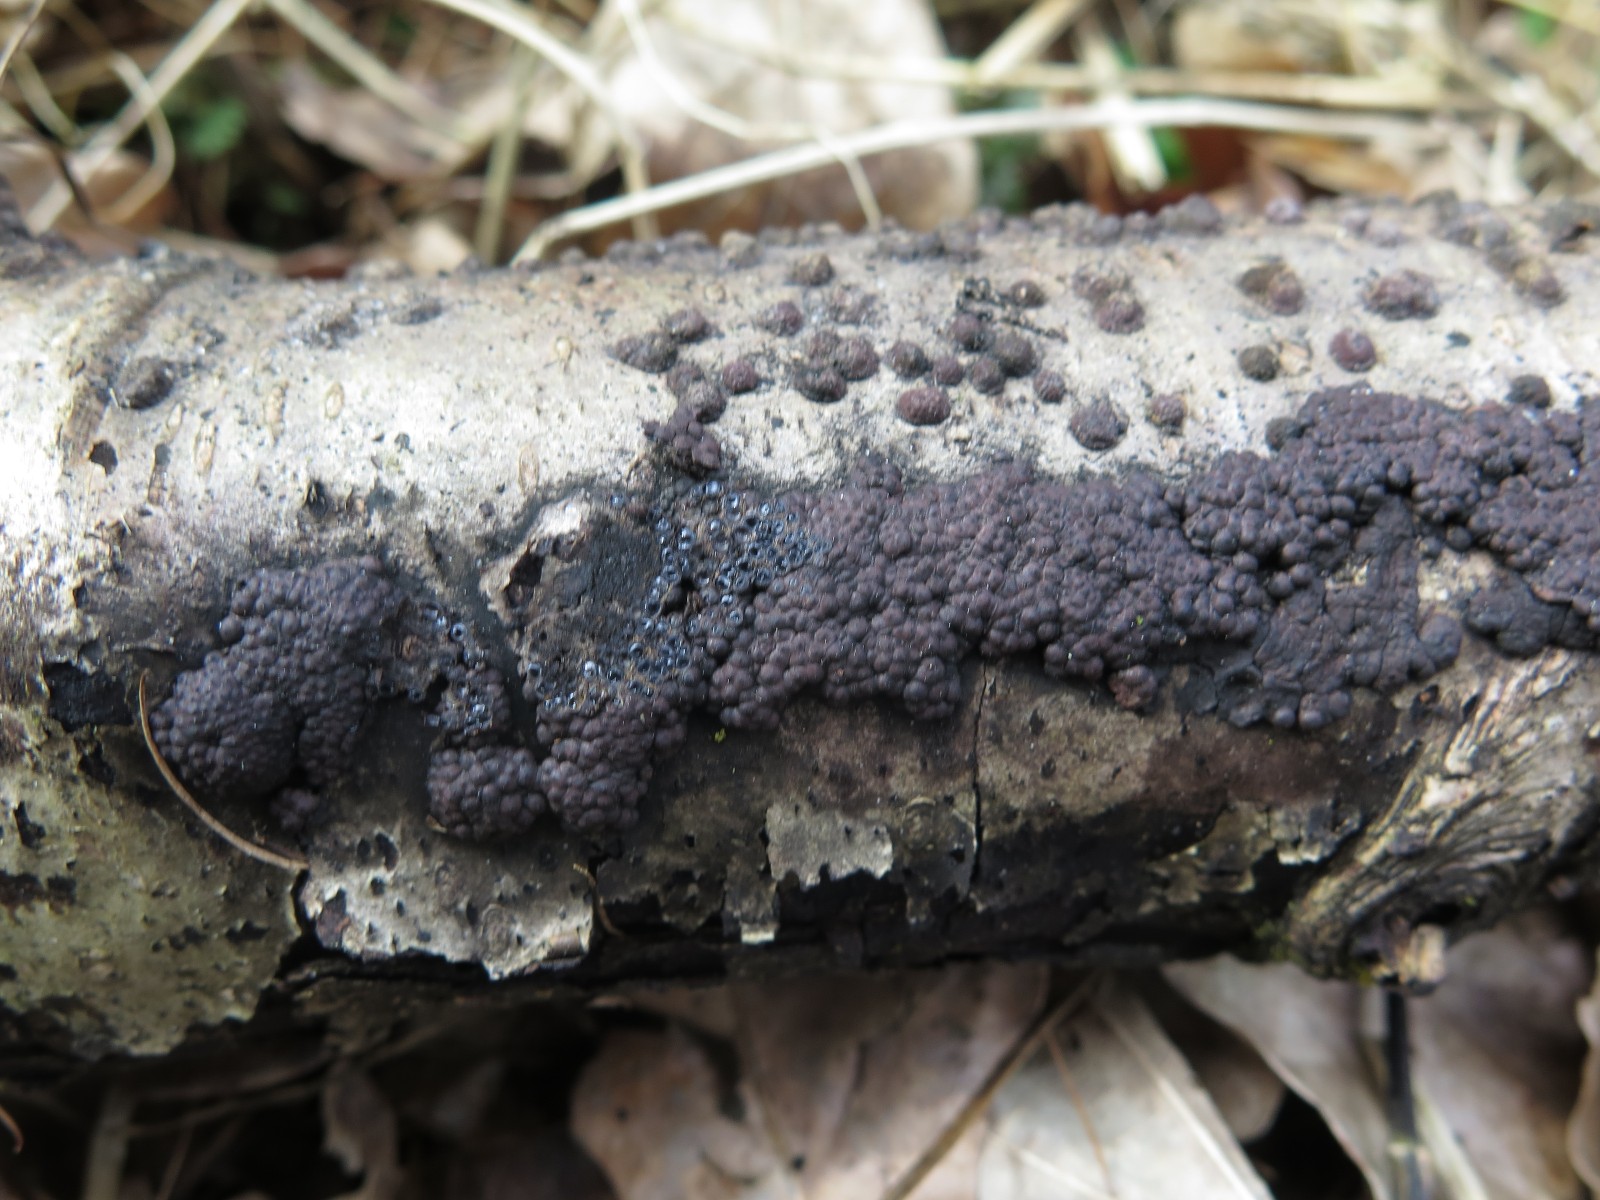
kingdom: Fungi
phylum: Ascomycota
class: Sordariomycetes
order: Xylariales
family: Hypoxylaceae
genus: Jackrogersella
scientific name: Jackrogersella multiformis
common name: foranderlig kulbær
